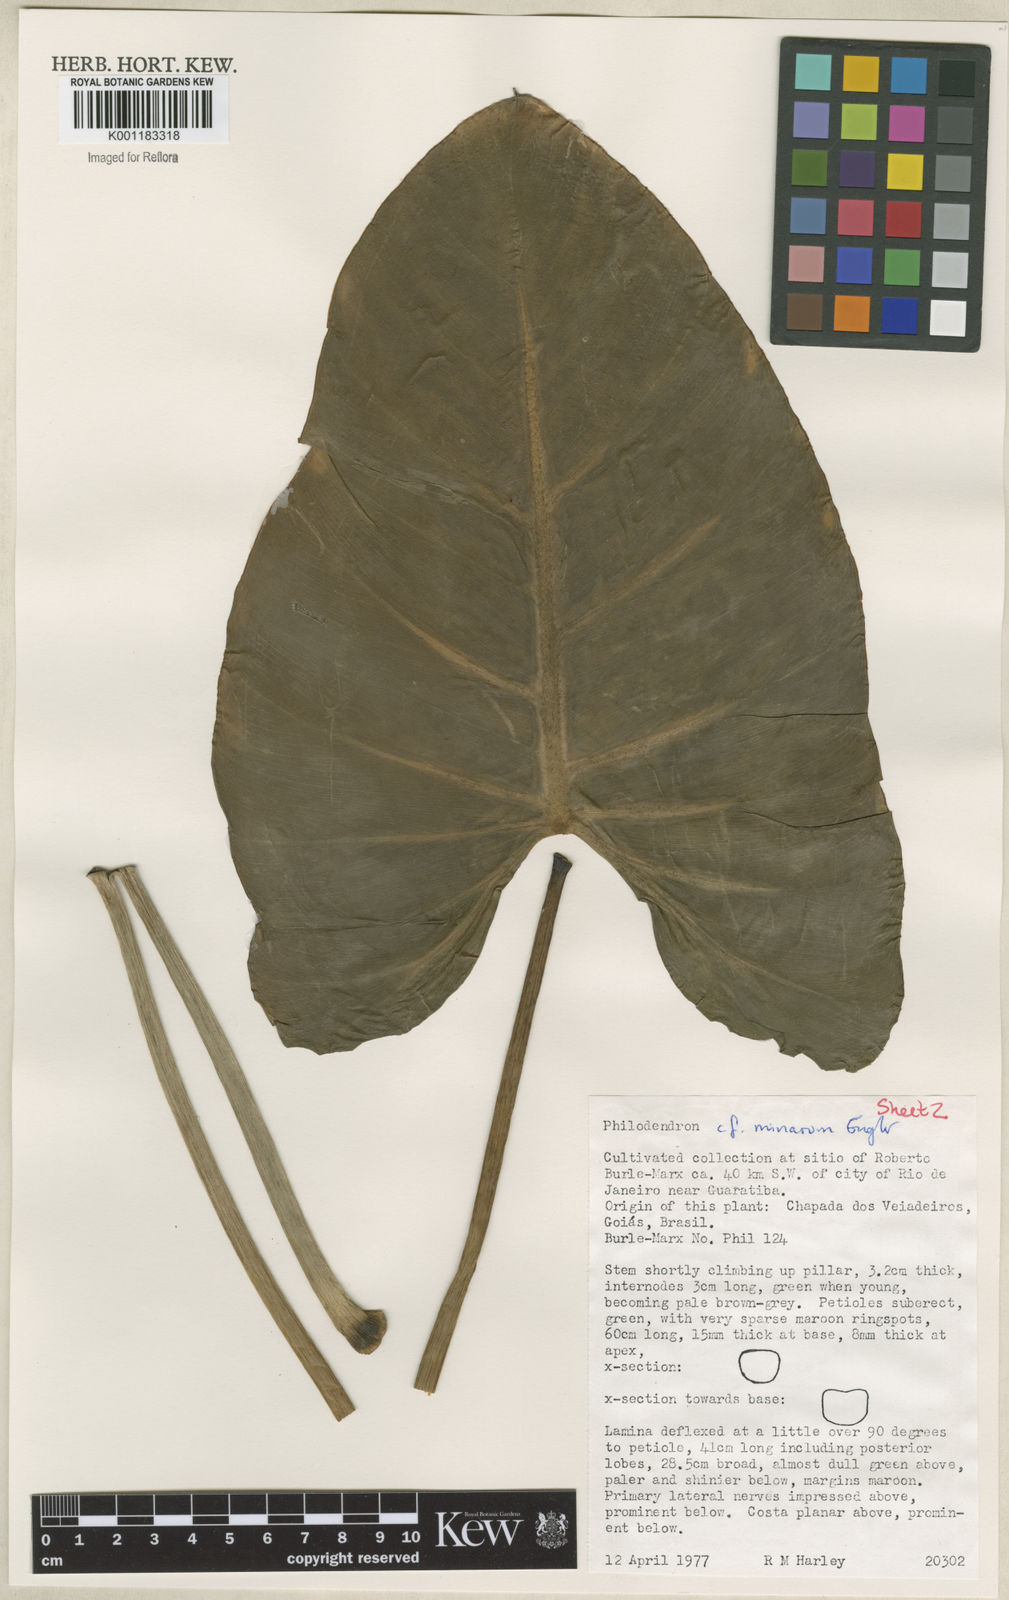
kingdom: Plantae
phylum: Tracheophyta
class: Liliopsida
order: Alismatales
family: Araceae
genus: Philodendron
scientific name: Philodendron minarum
